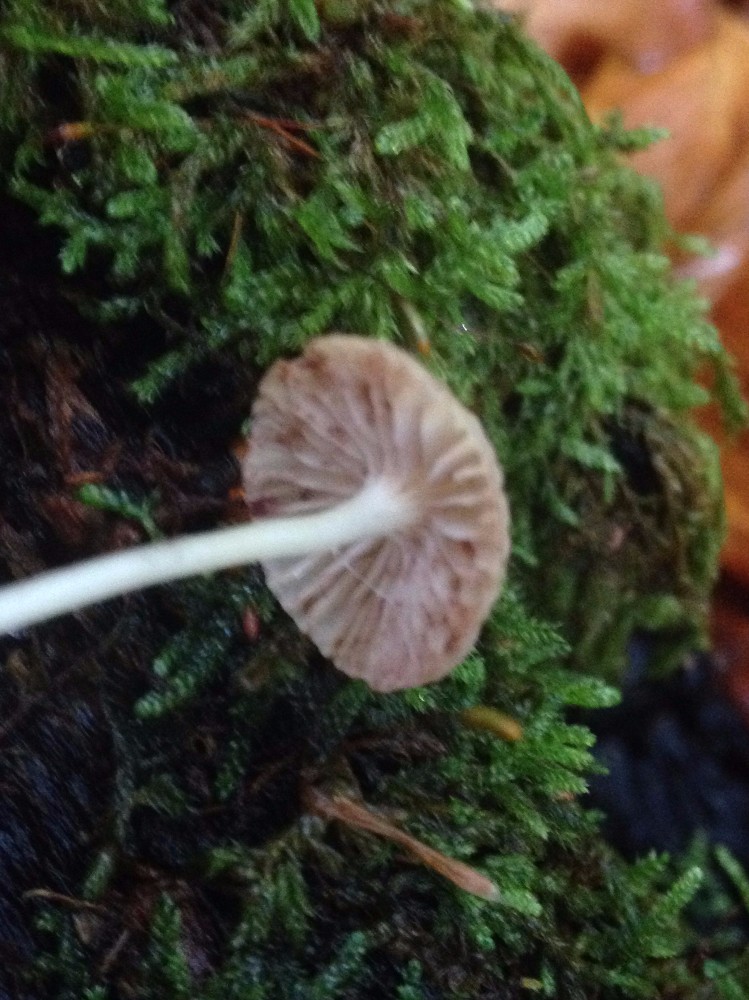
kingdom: Fungi
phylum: Basidiomycota
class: Agaricomycetes
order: Agaricales
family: Mycenaceae
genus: Mycena
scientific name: Mycena
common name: huesvamp
